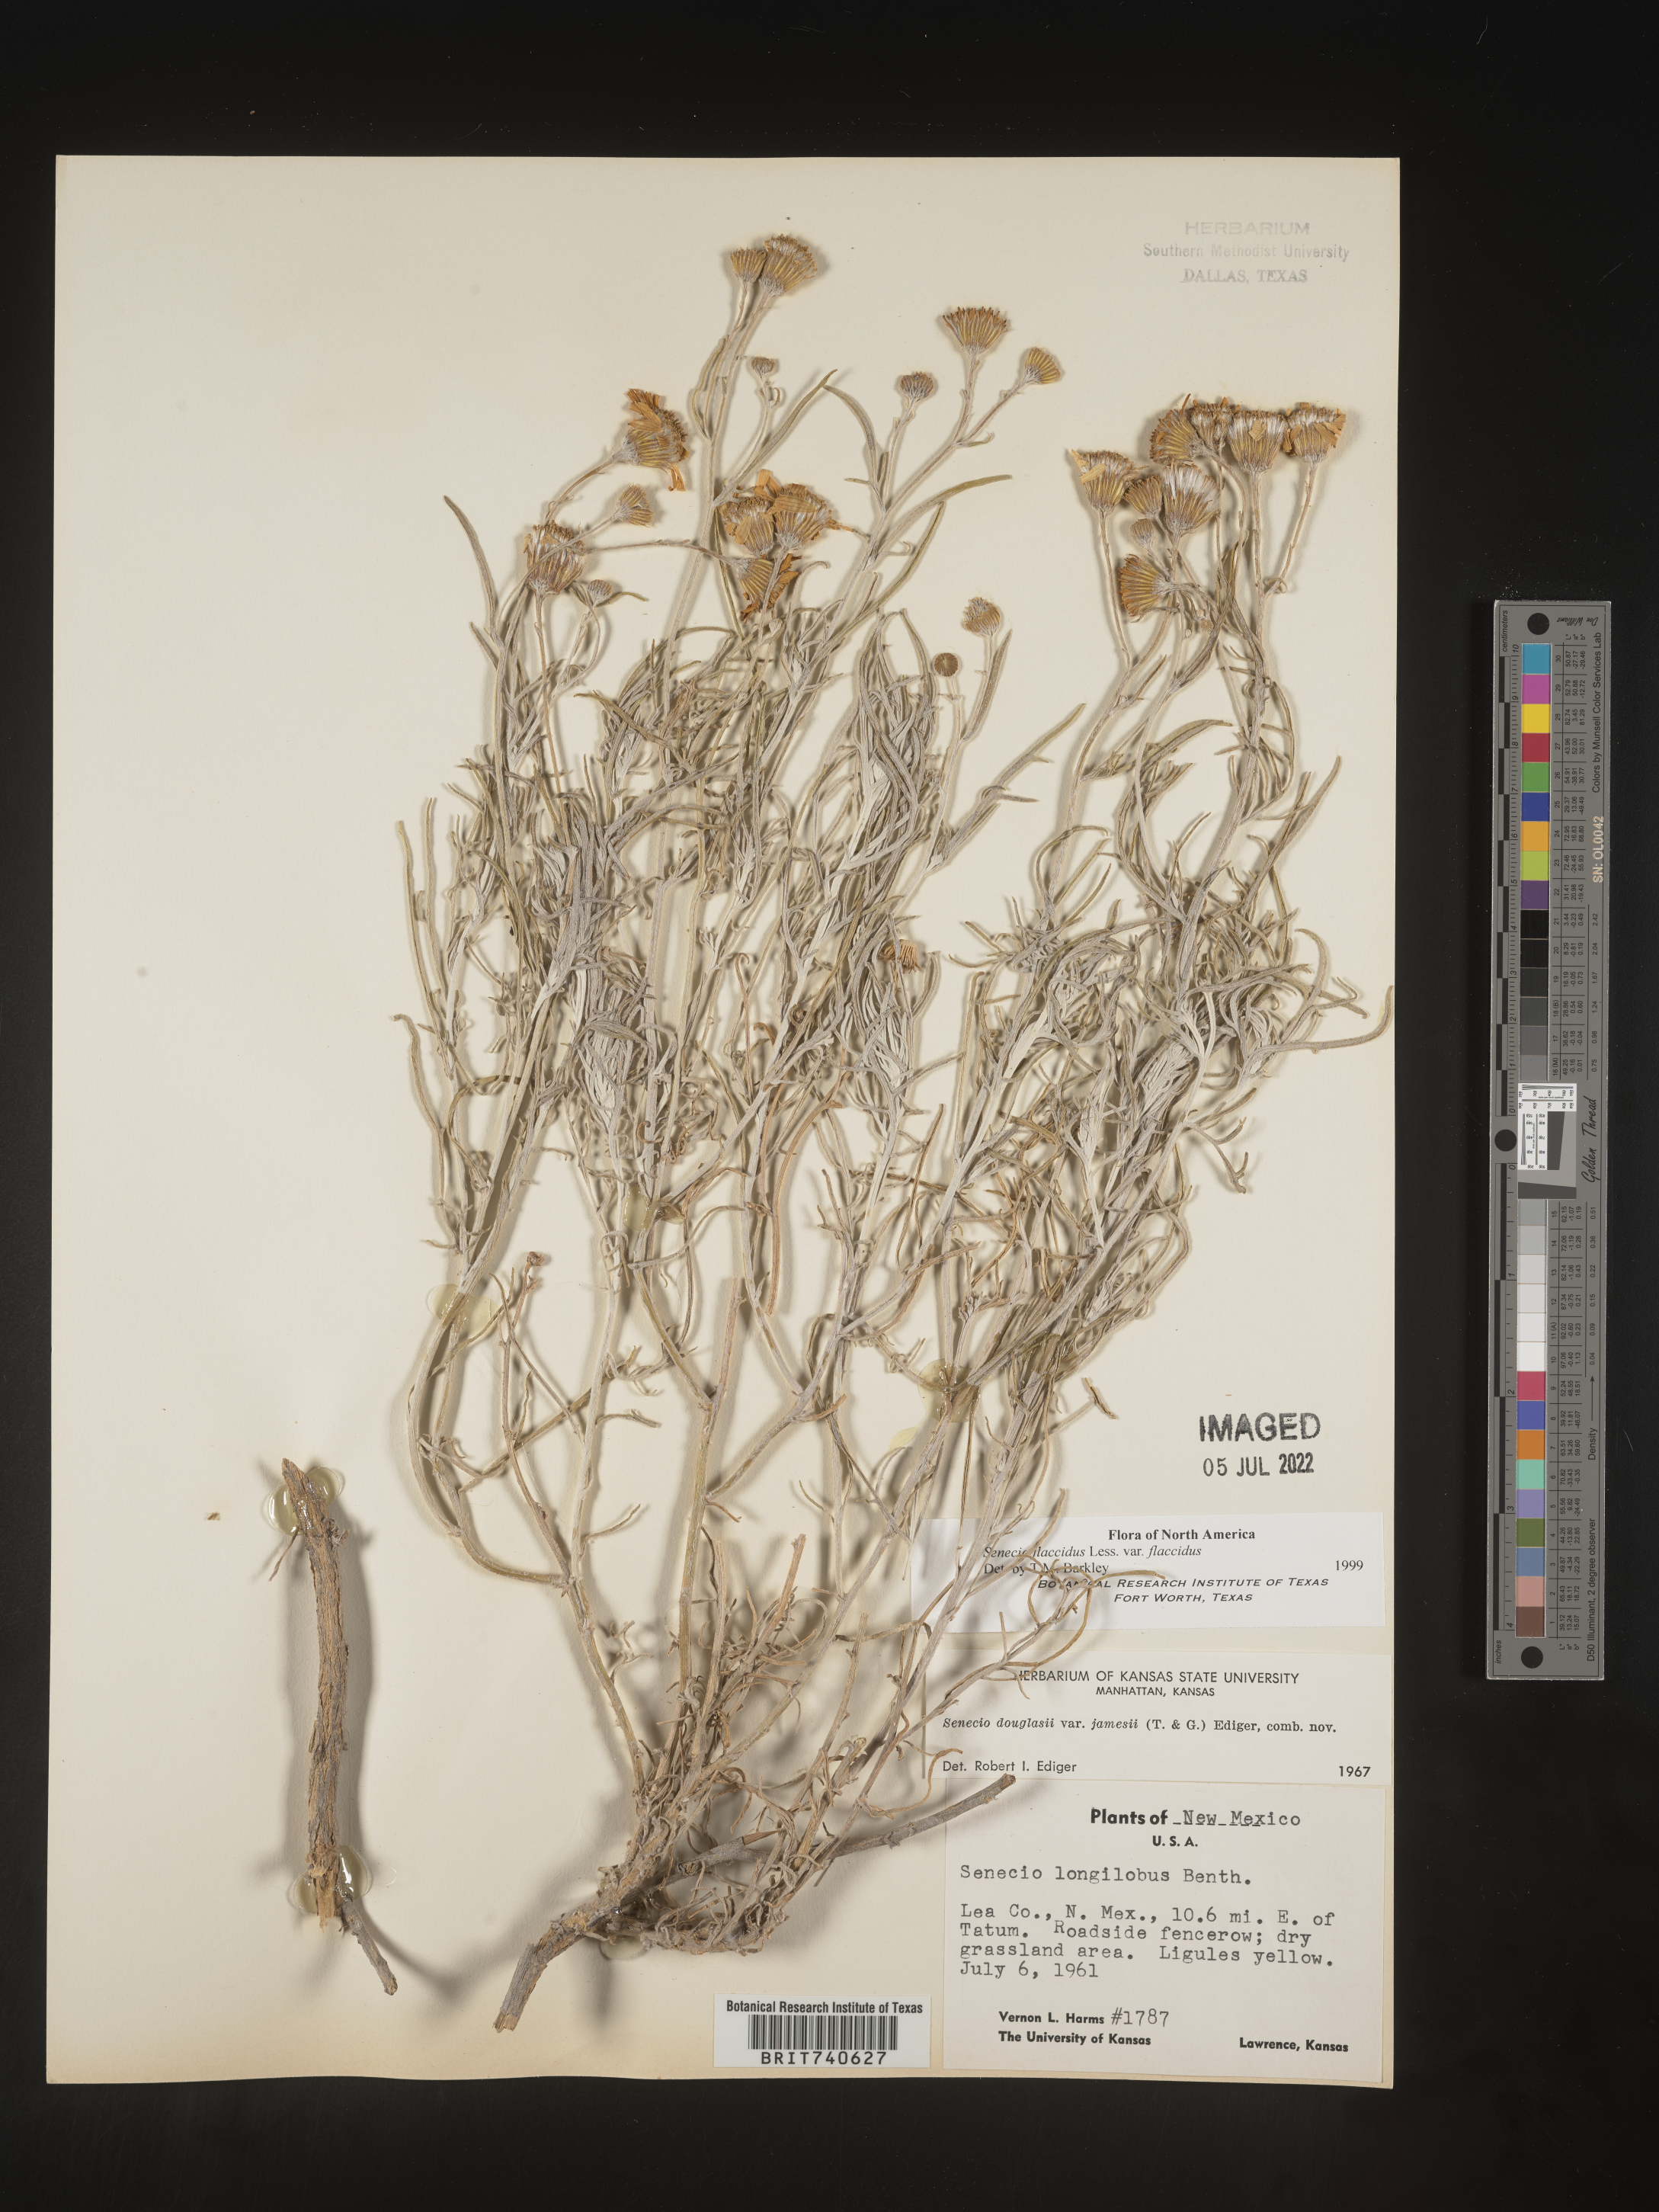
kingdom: Plantae
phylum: Tracheophyta
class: Magnoliopsida
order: Asterales
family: Asteraceae
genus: Senecio
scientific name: Senecio flaccidus
